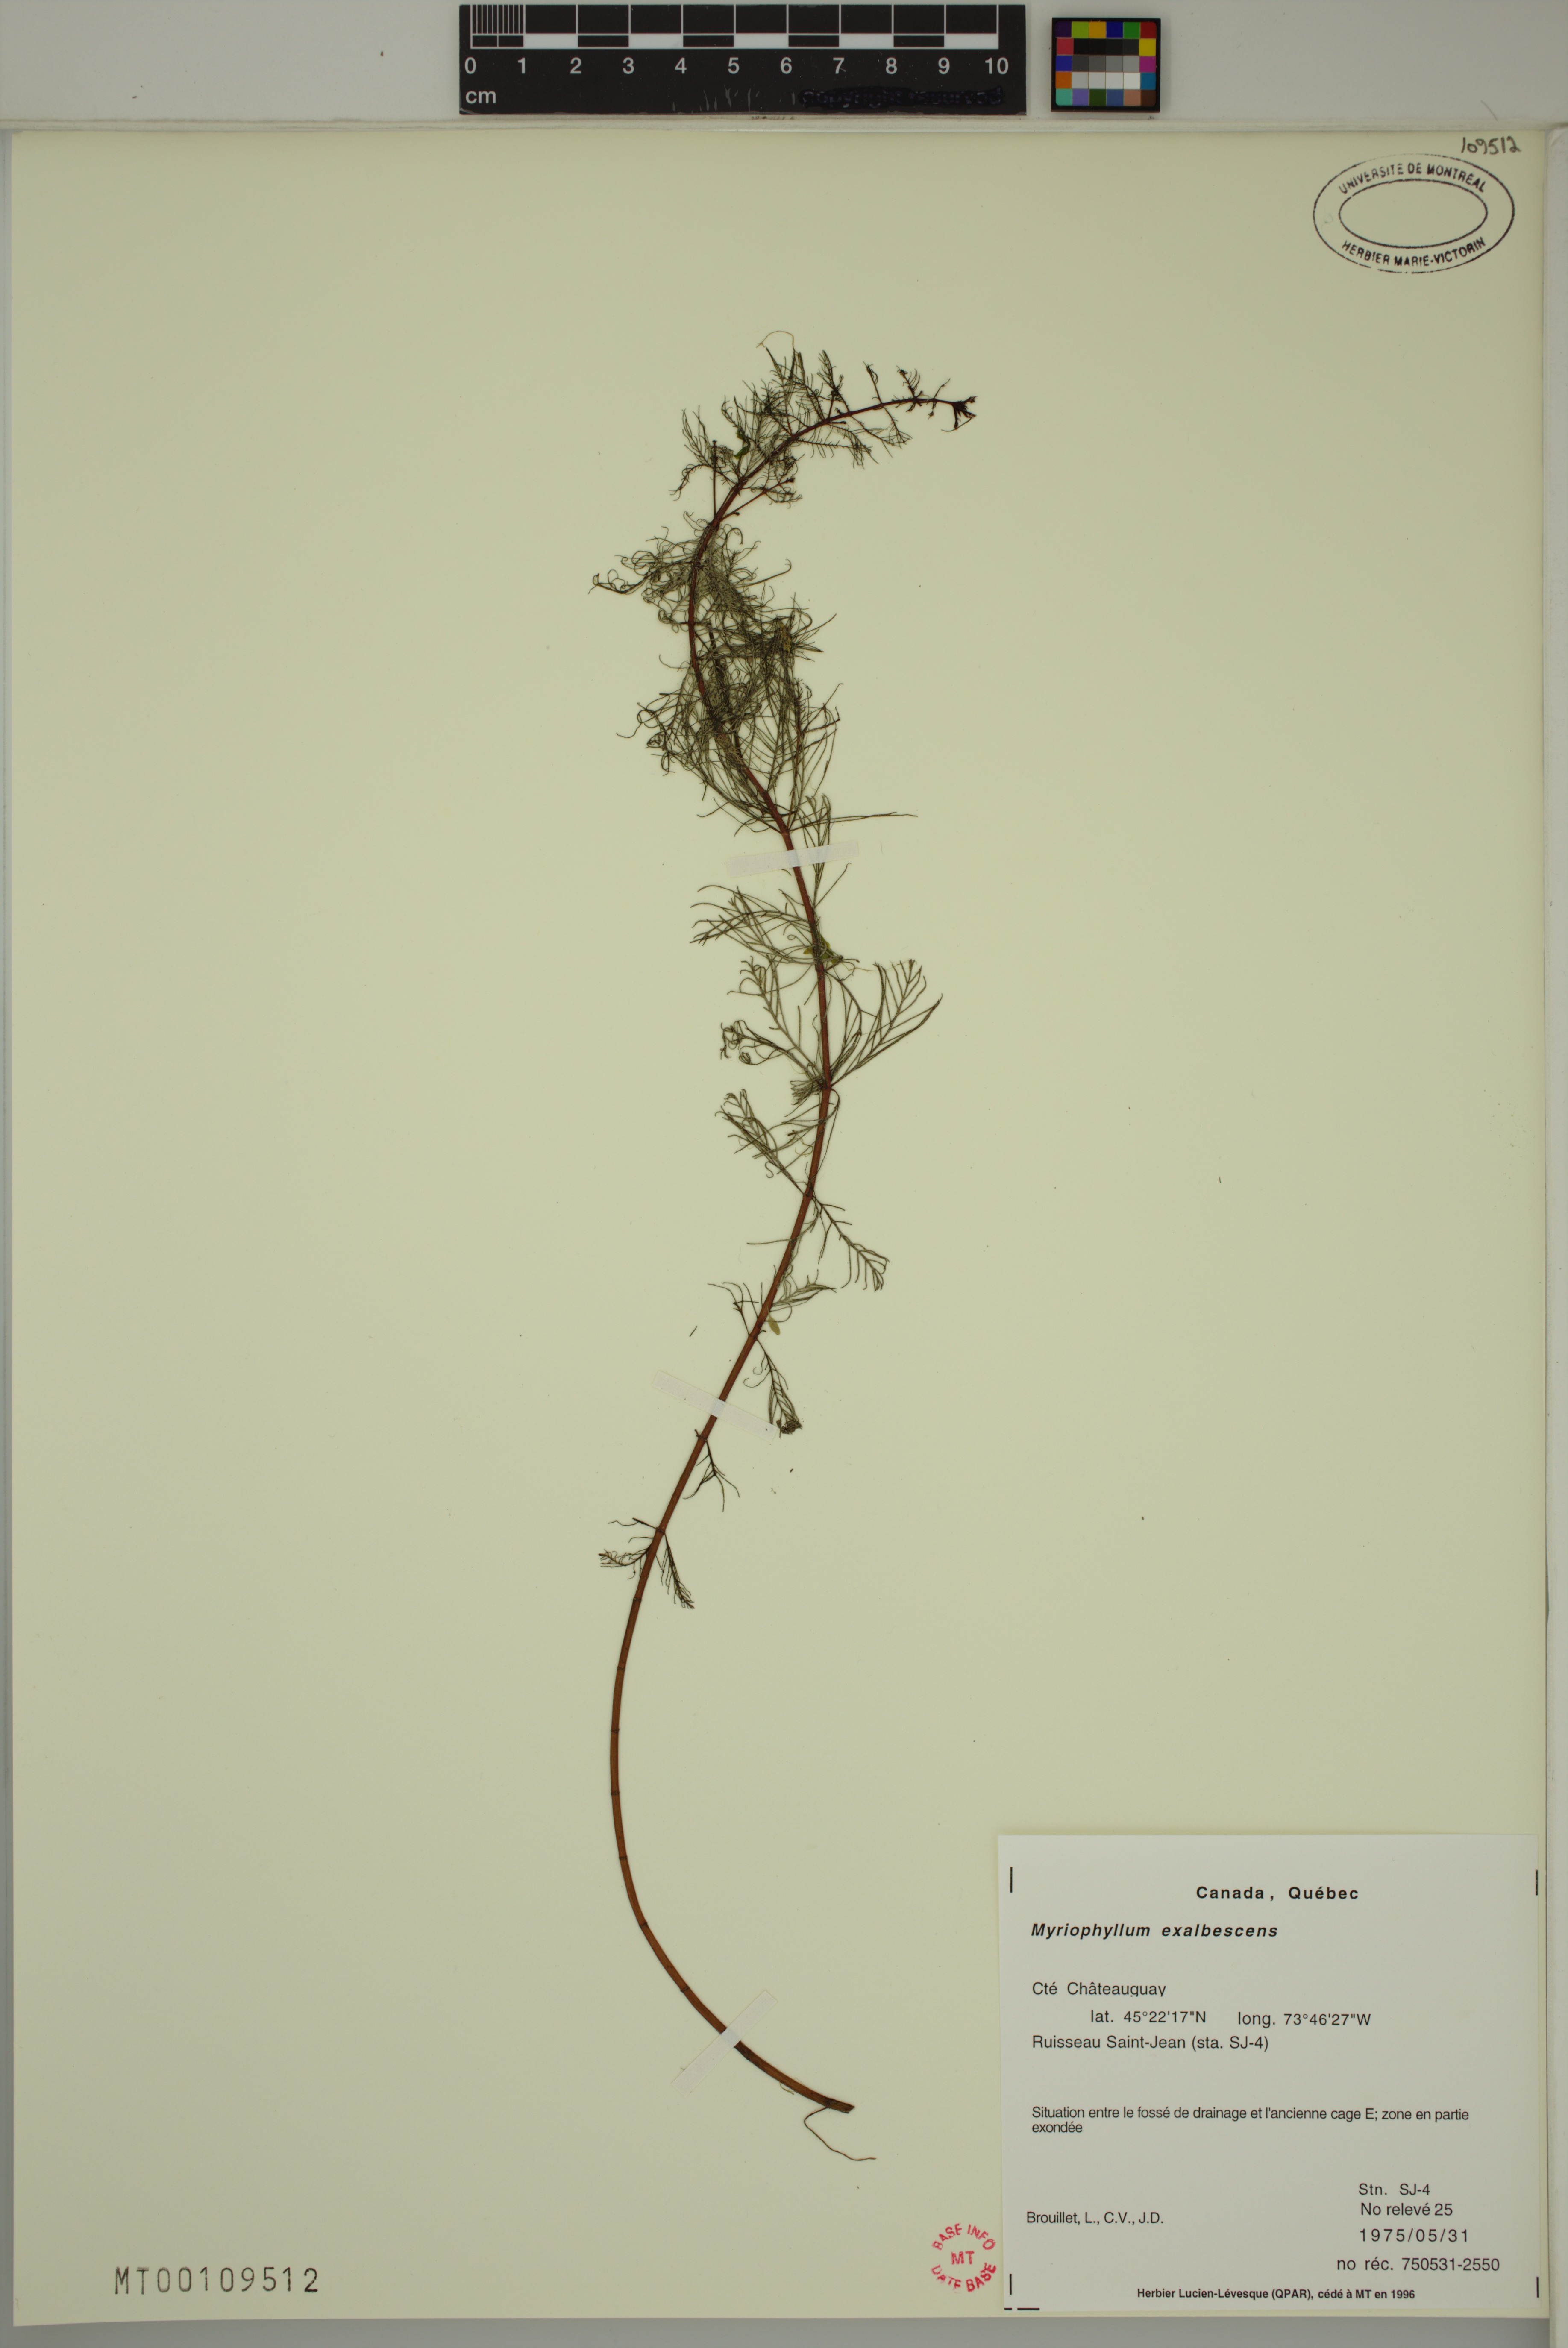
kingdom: Plantae
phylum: Tracheophyta
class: Magnoliopsida
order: Saxifragales
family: Haloragaceae
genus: Myriophyllum
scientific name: Myriophyllum sibiricum
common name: Siberian water-milfoil
